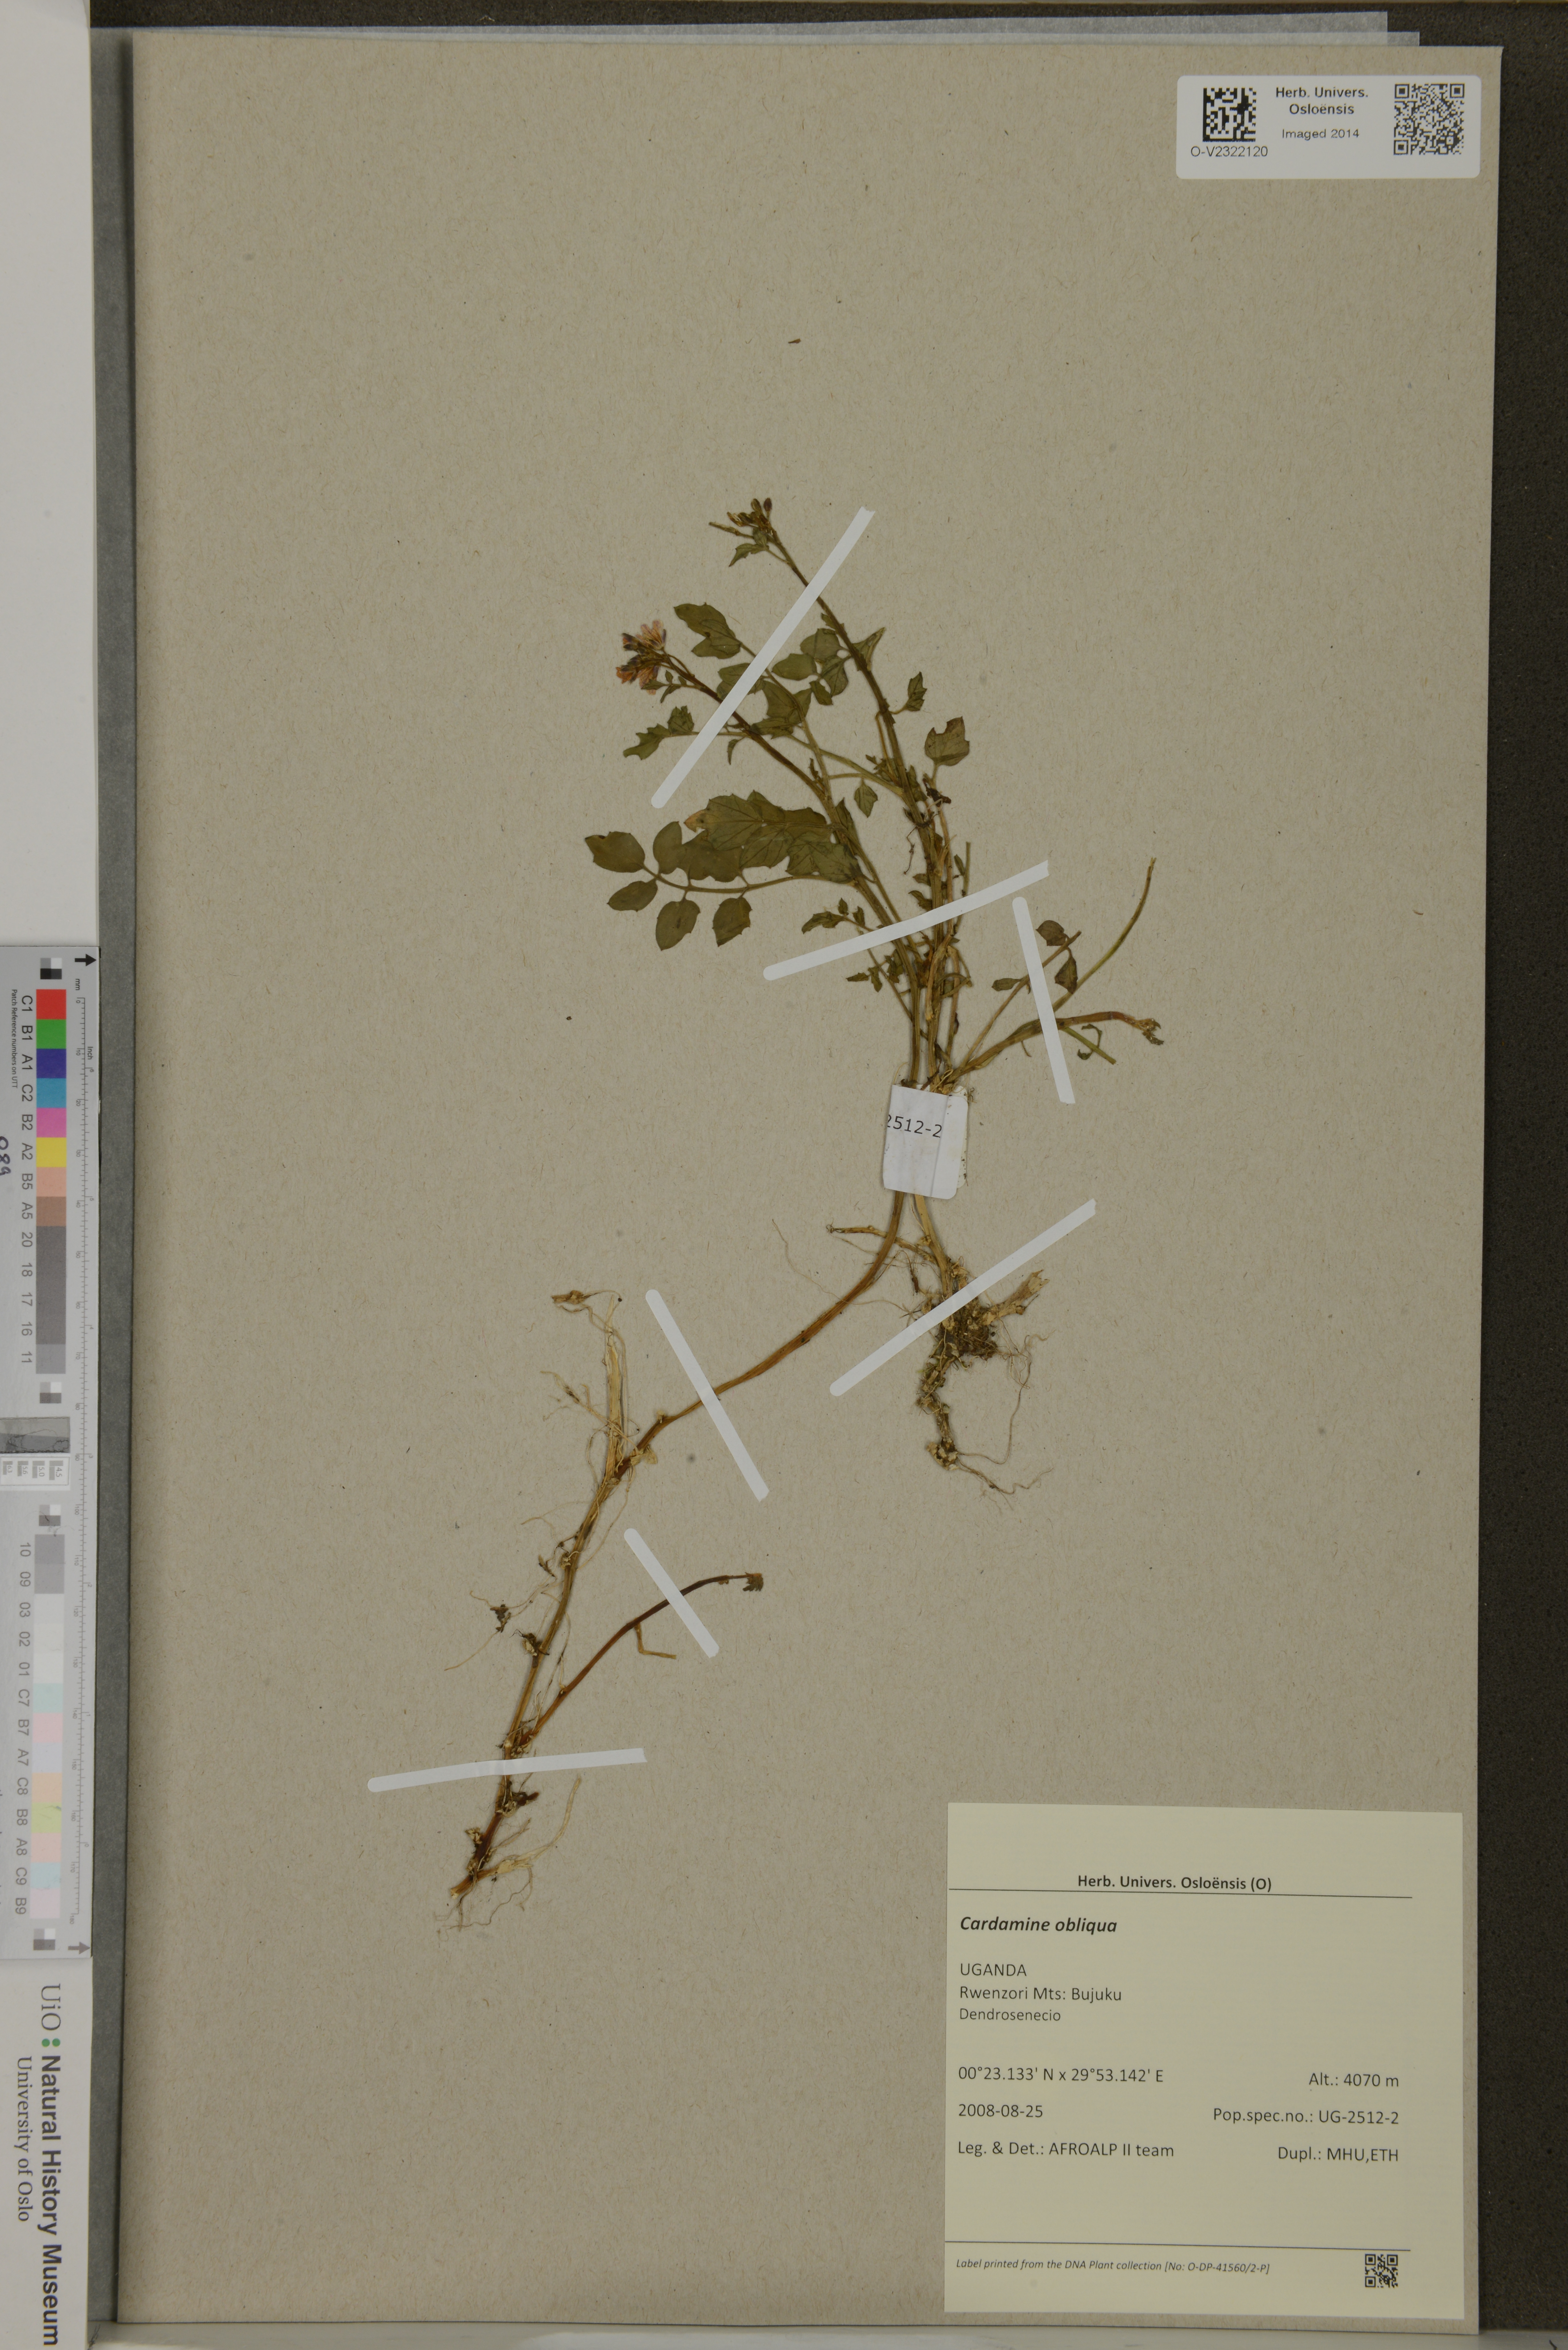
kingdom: Plantae
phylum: Tracheophyta
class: Magnoliopsida
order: Brassicales
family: Brassicaceae
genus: Cardamine
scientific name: Cardamine obliqua
